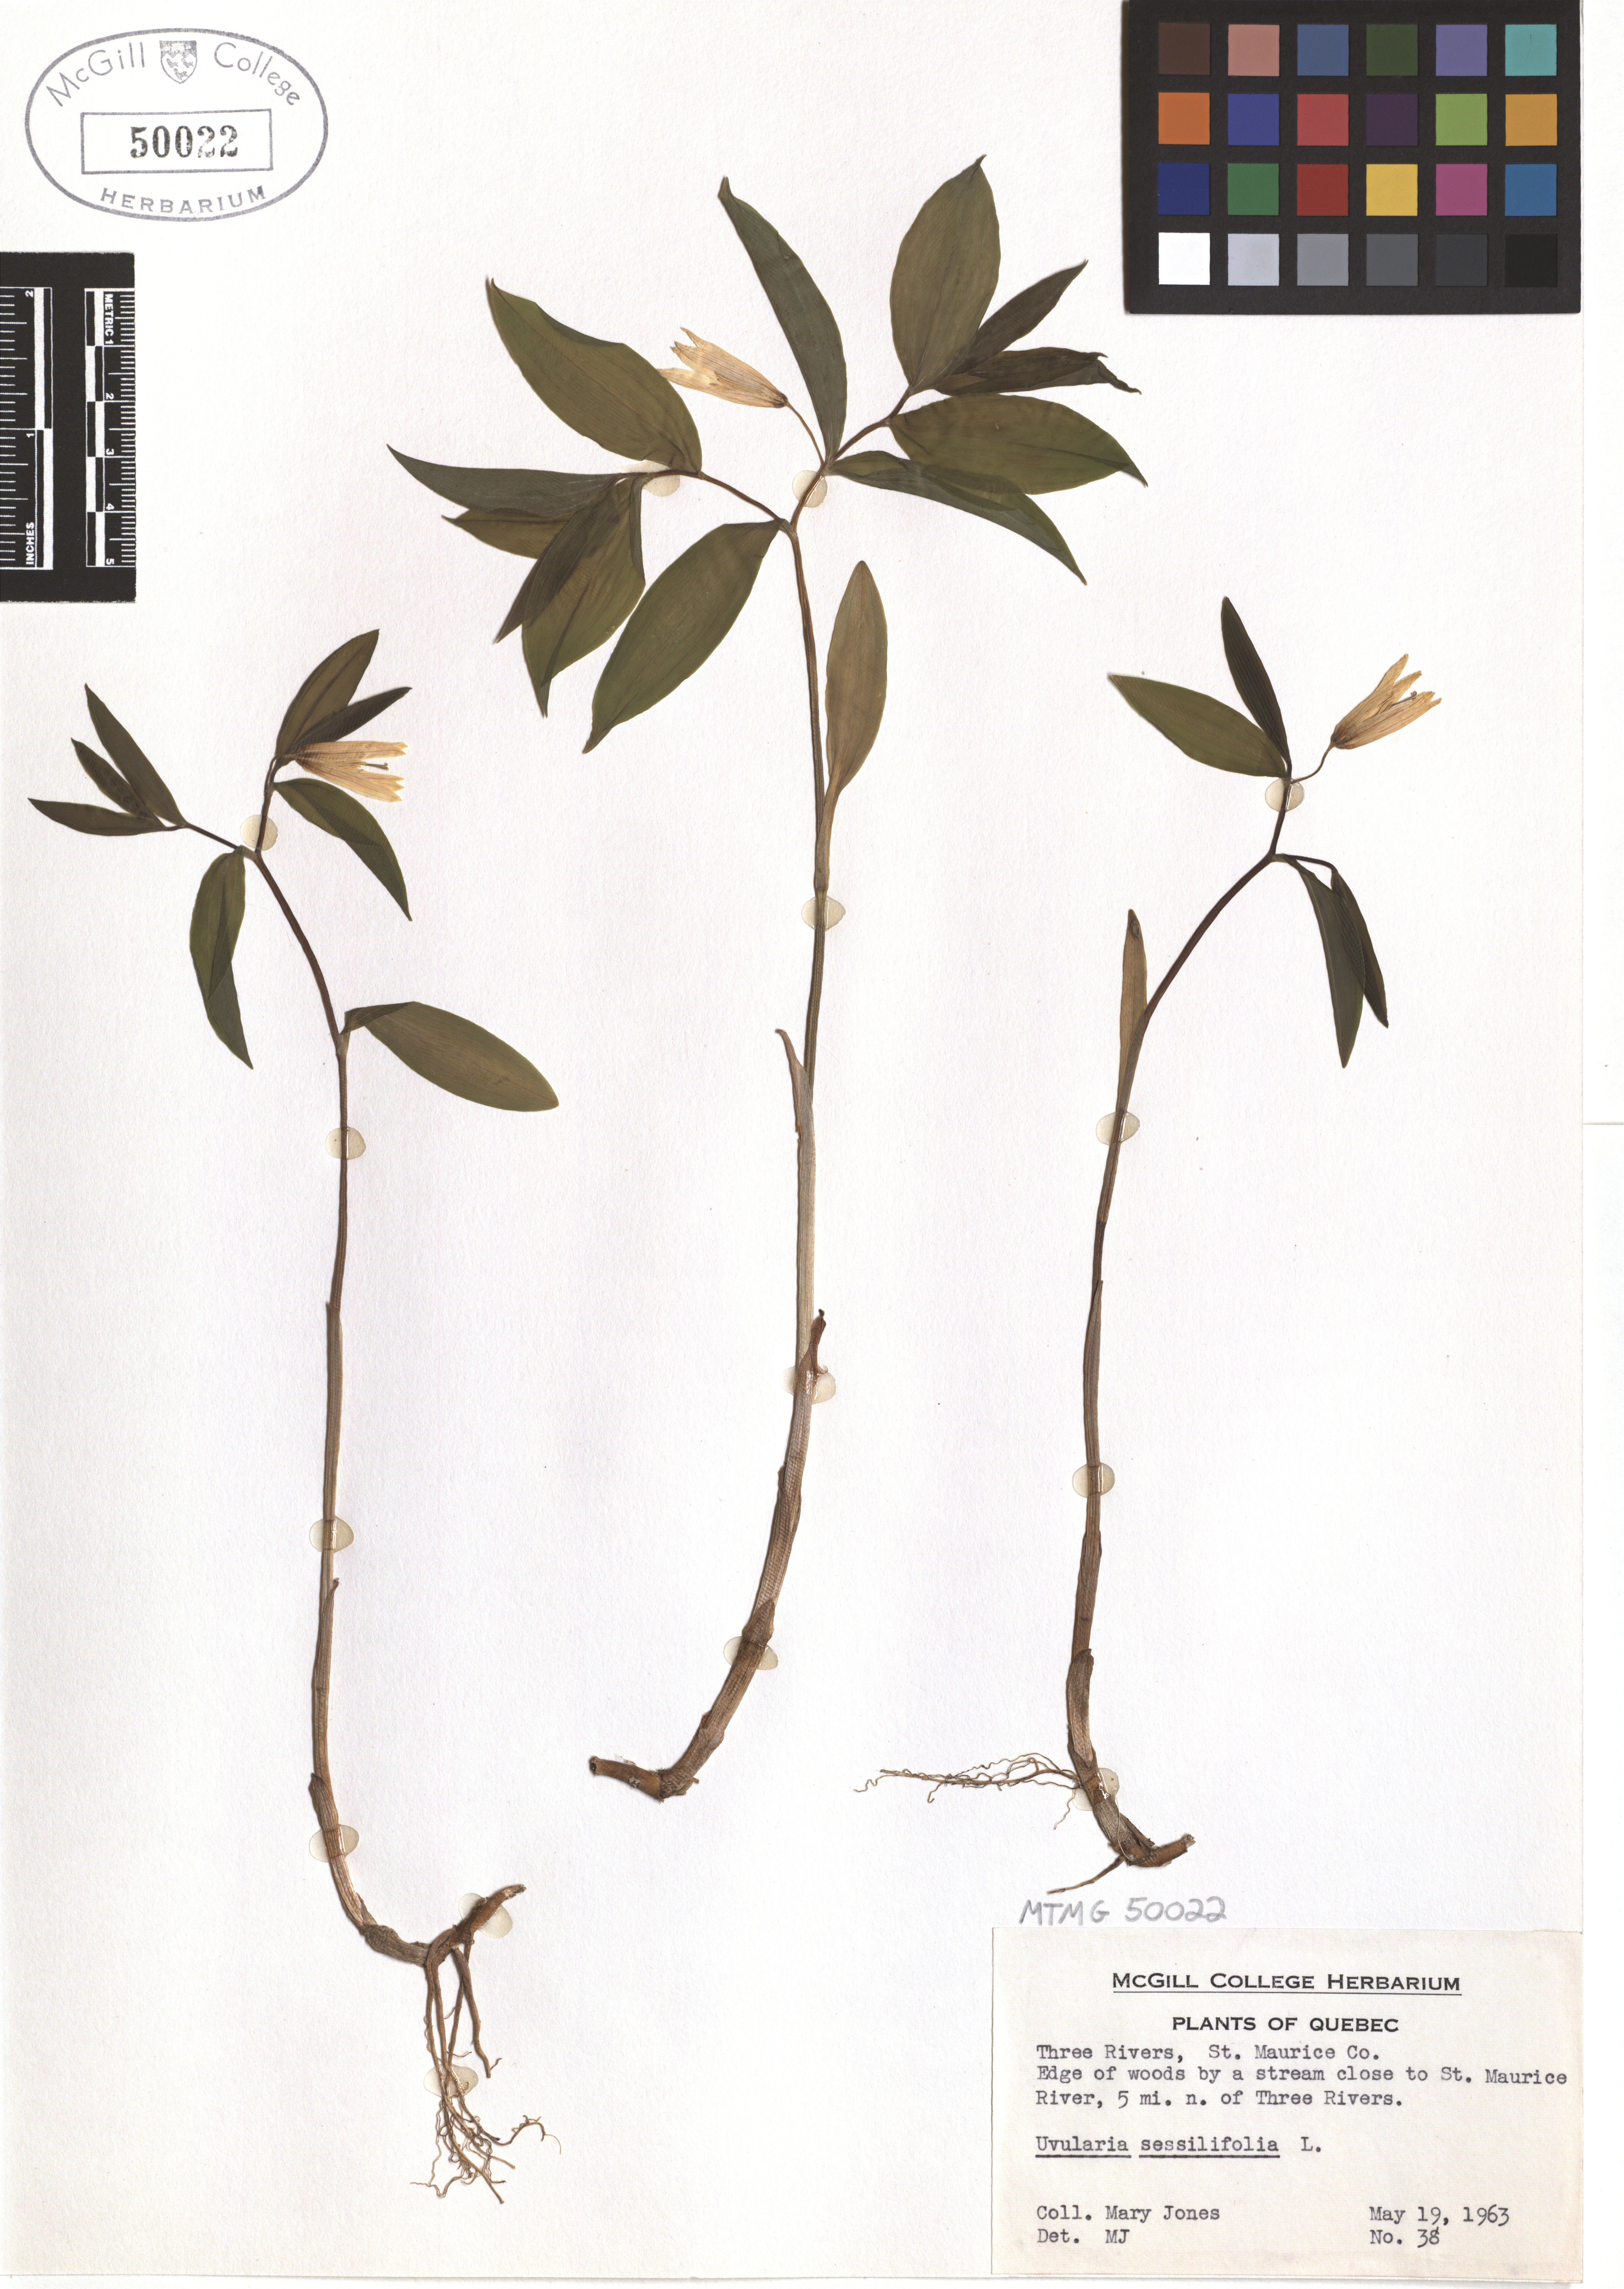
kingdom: Plantae
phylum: Tracheophyta
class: Liliopsida
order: Liliales
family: Colchicaceae
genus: Uvularia
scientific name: Uvularia sessilifolia
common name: Straw-lily
